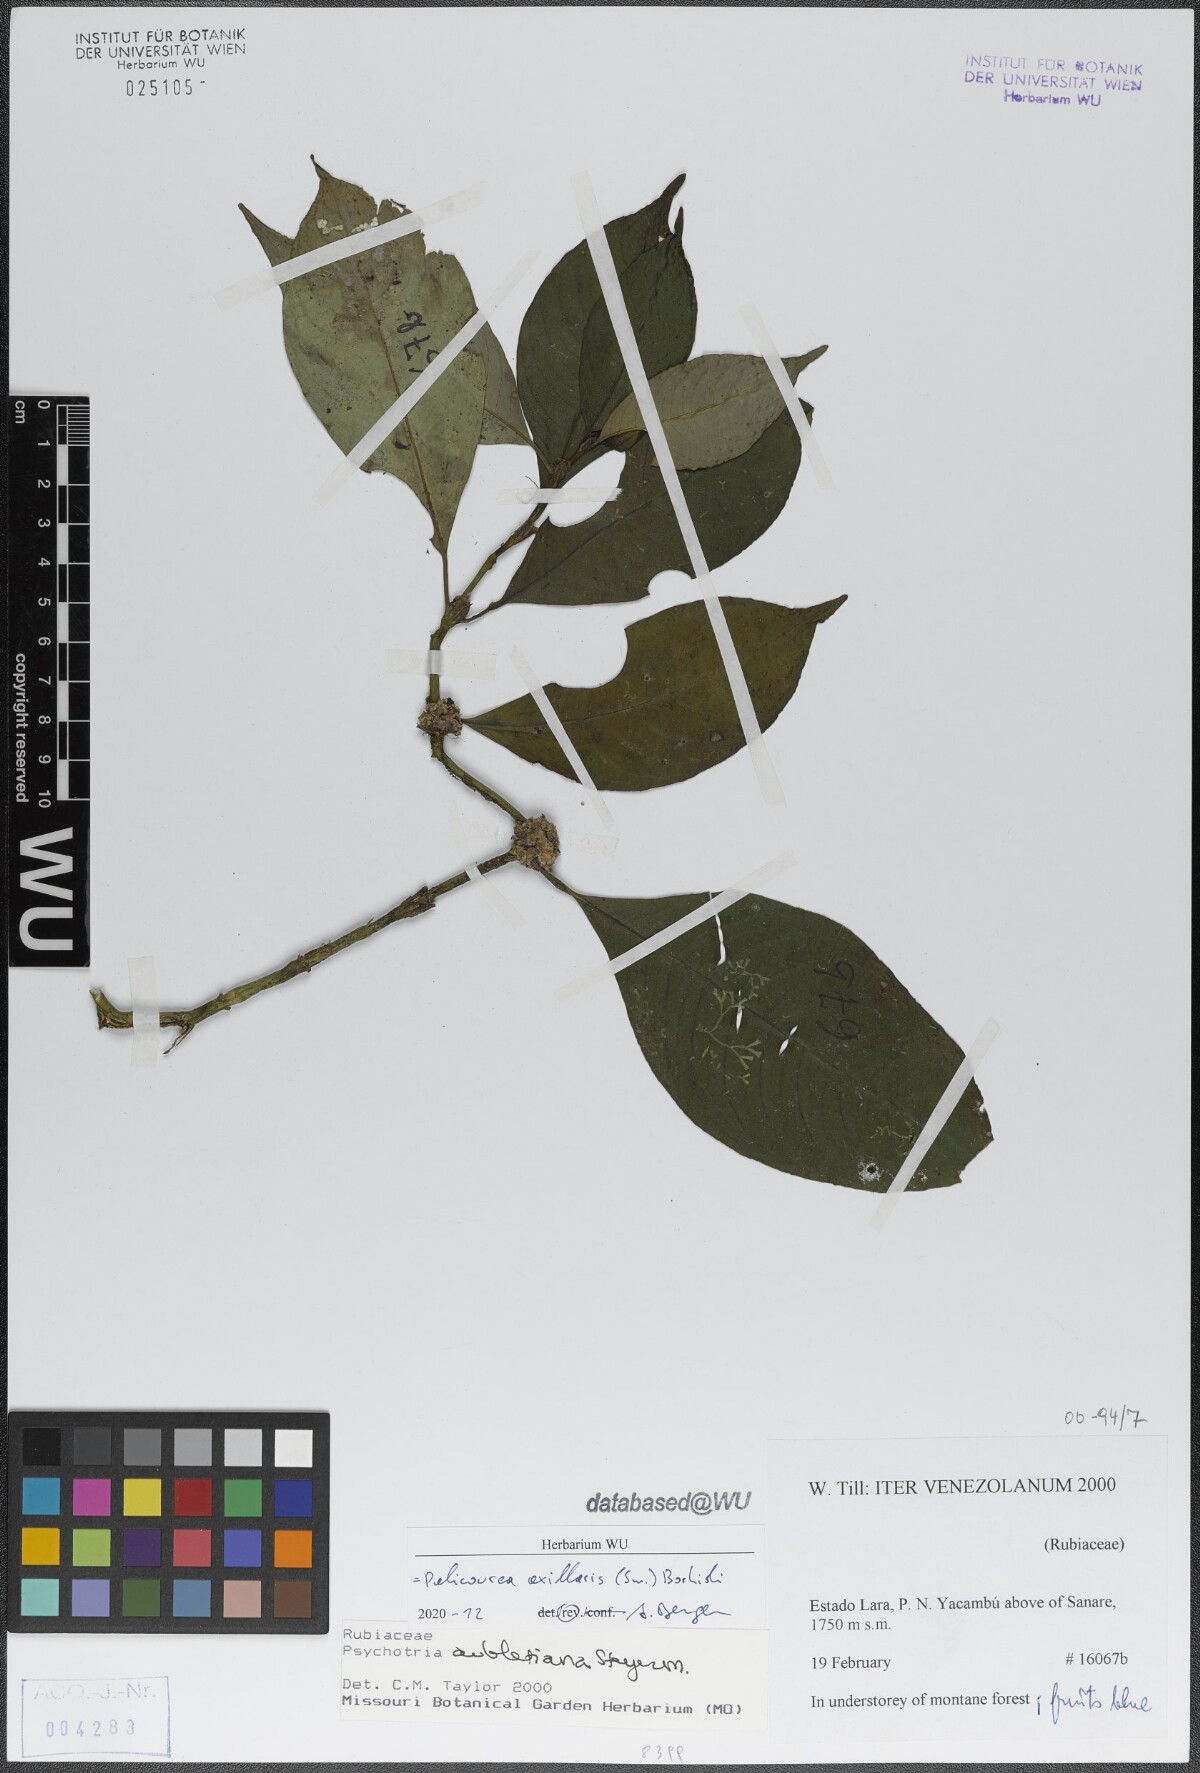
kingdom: Plantae
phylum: Tracheophyta
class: Magnoliopsida
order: Gentianales
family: Rubiaceae
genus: Palicourea
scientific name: Palicourea axillaris
